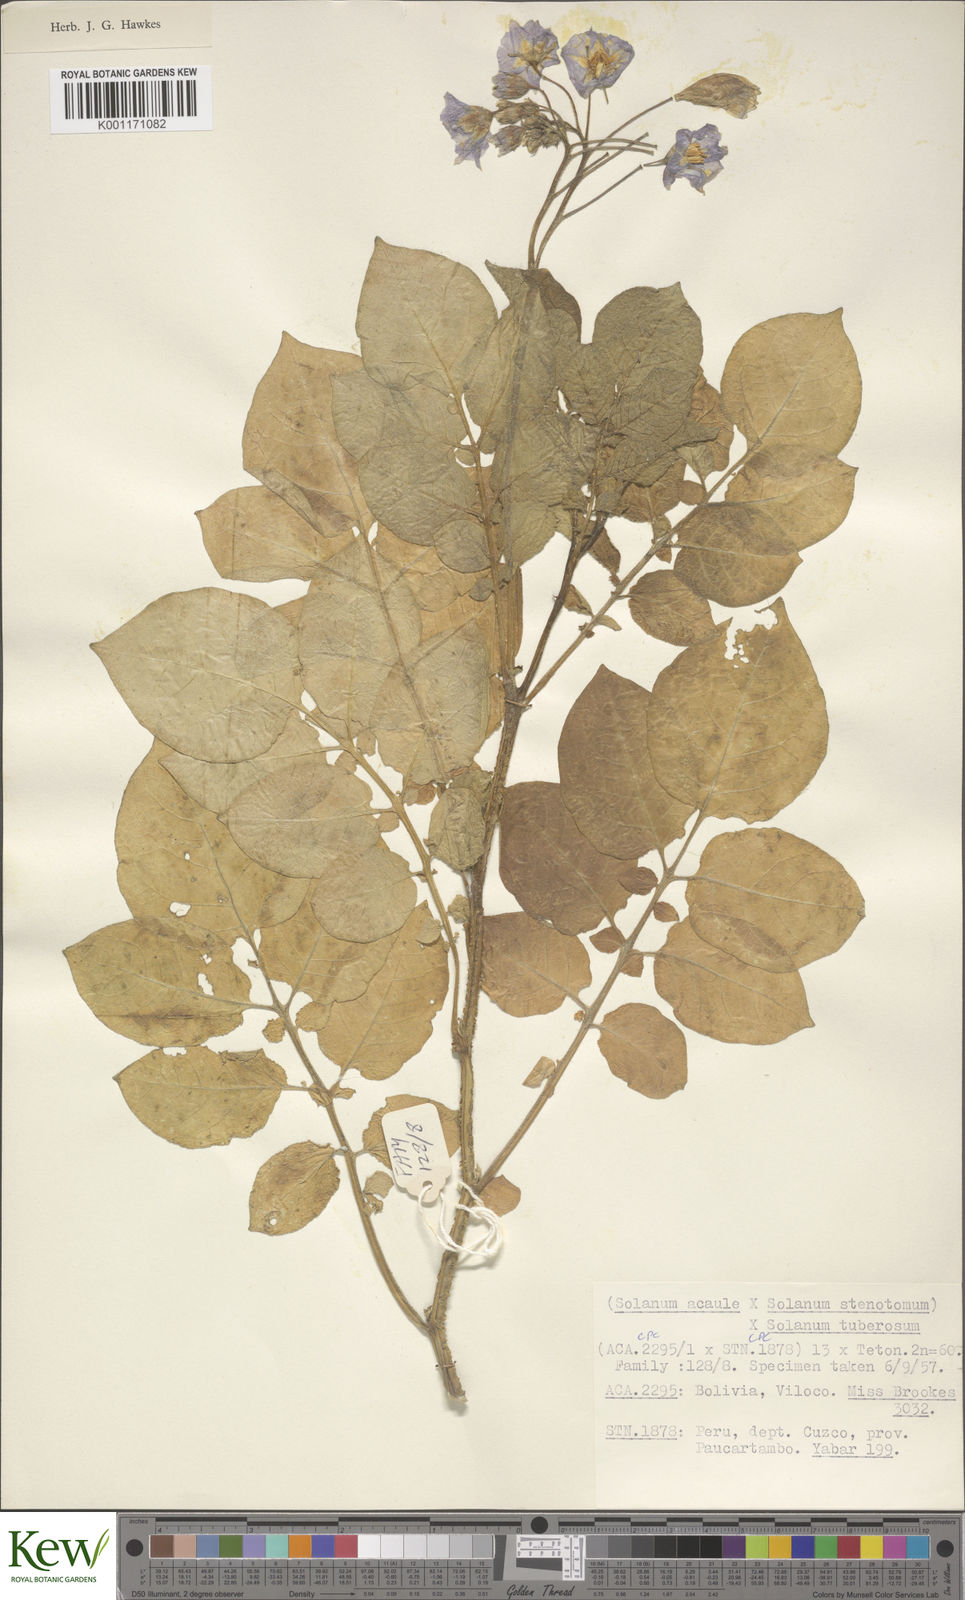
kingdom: Plantae
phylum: Tracheophyta
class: Magnoliopsida
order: Solanales
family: Solanaceae
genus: Solanum
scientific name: Solanum tuberosum
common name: Potato
